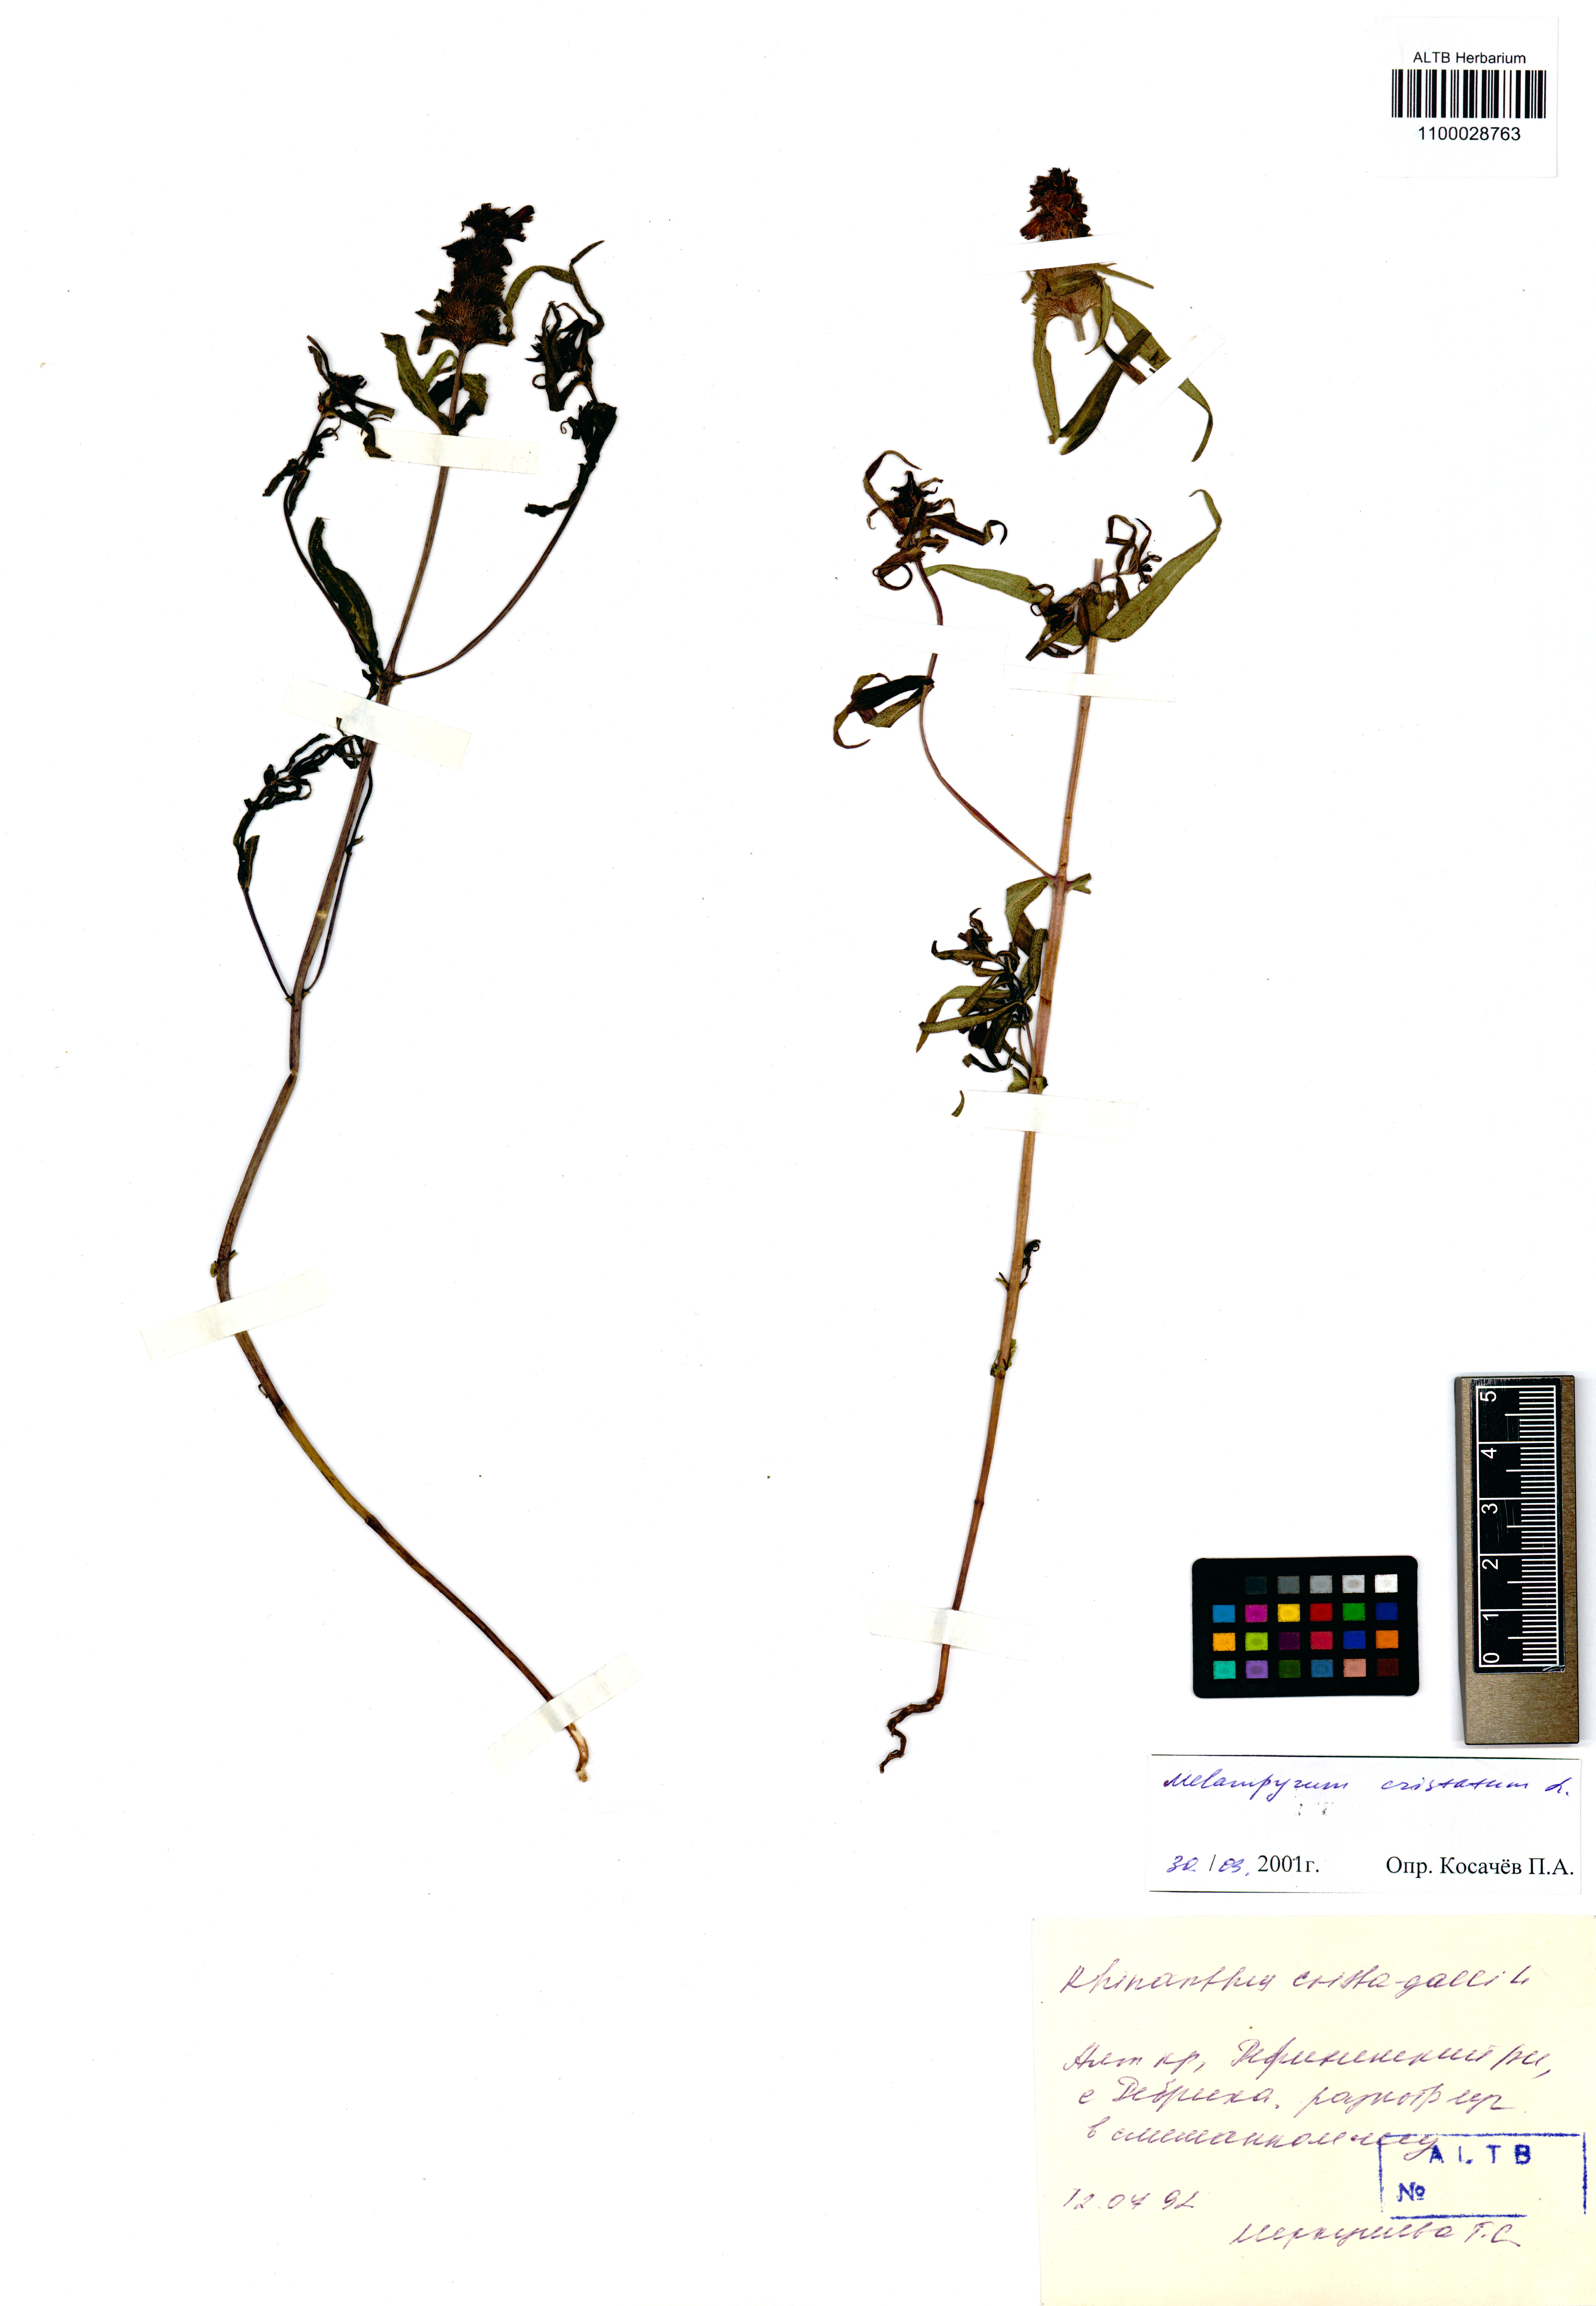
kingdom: Plantae
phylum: Tracheophyta
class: Magnoliopsida
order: Lamiales
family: Orobanchaceae
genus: Melampyrum
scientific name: Melampyrum cristatum
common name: Crested cow-wheat
